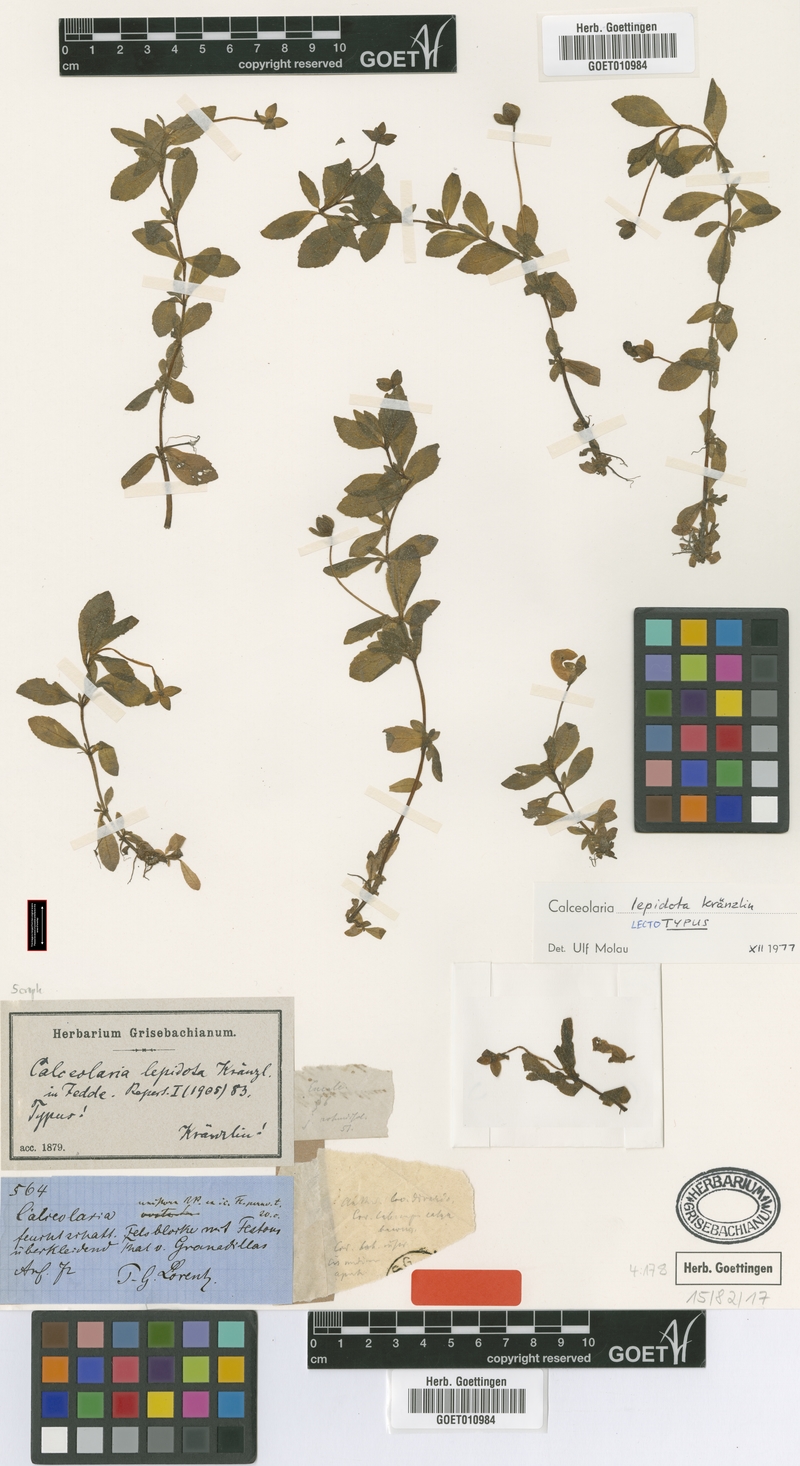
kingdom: Plantae
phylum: Tracheophyta
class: Magnoliopsida
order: Lamiales
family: Calceolariaceae
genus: Calceolaria
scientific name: Calceolaria lepidota
